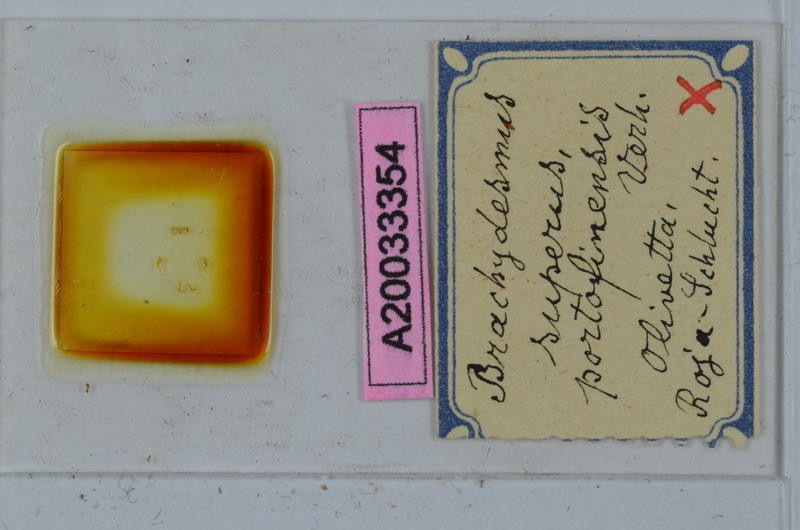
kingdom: Animalia
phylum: Arthropoda
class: Diplopoda
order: Polydesmida
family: Polydesmidae
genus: Brachydesmus
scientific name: Brachydesmus superus
